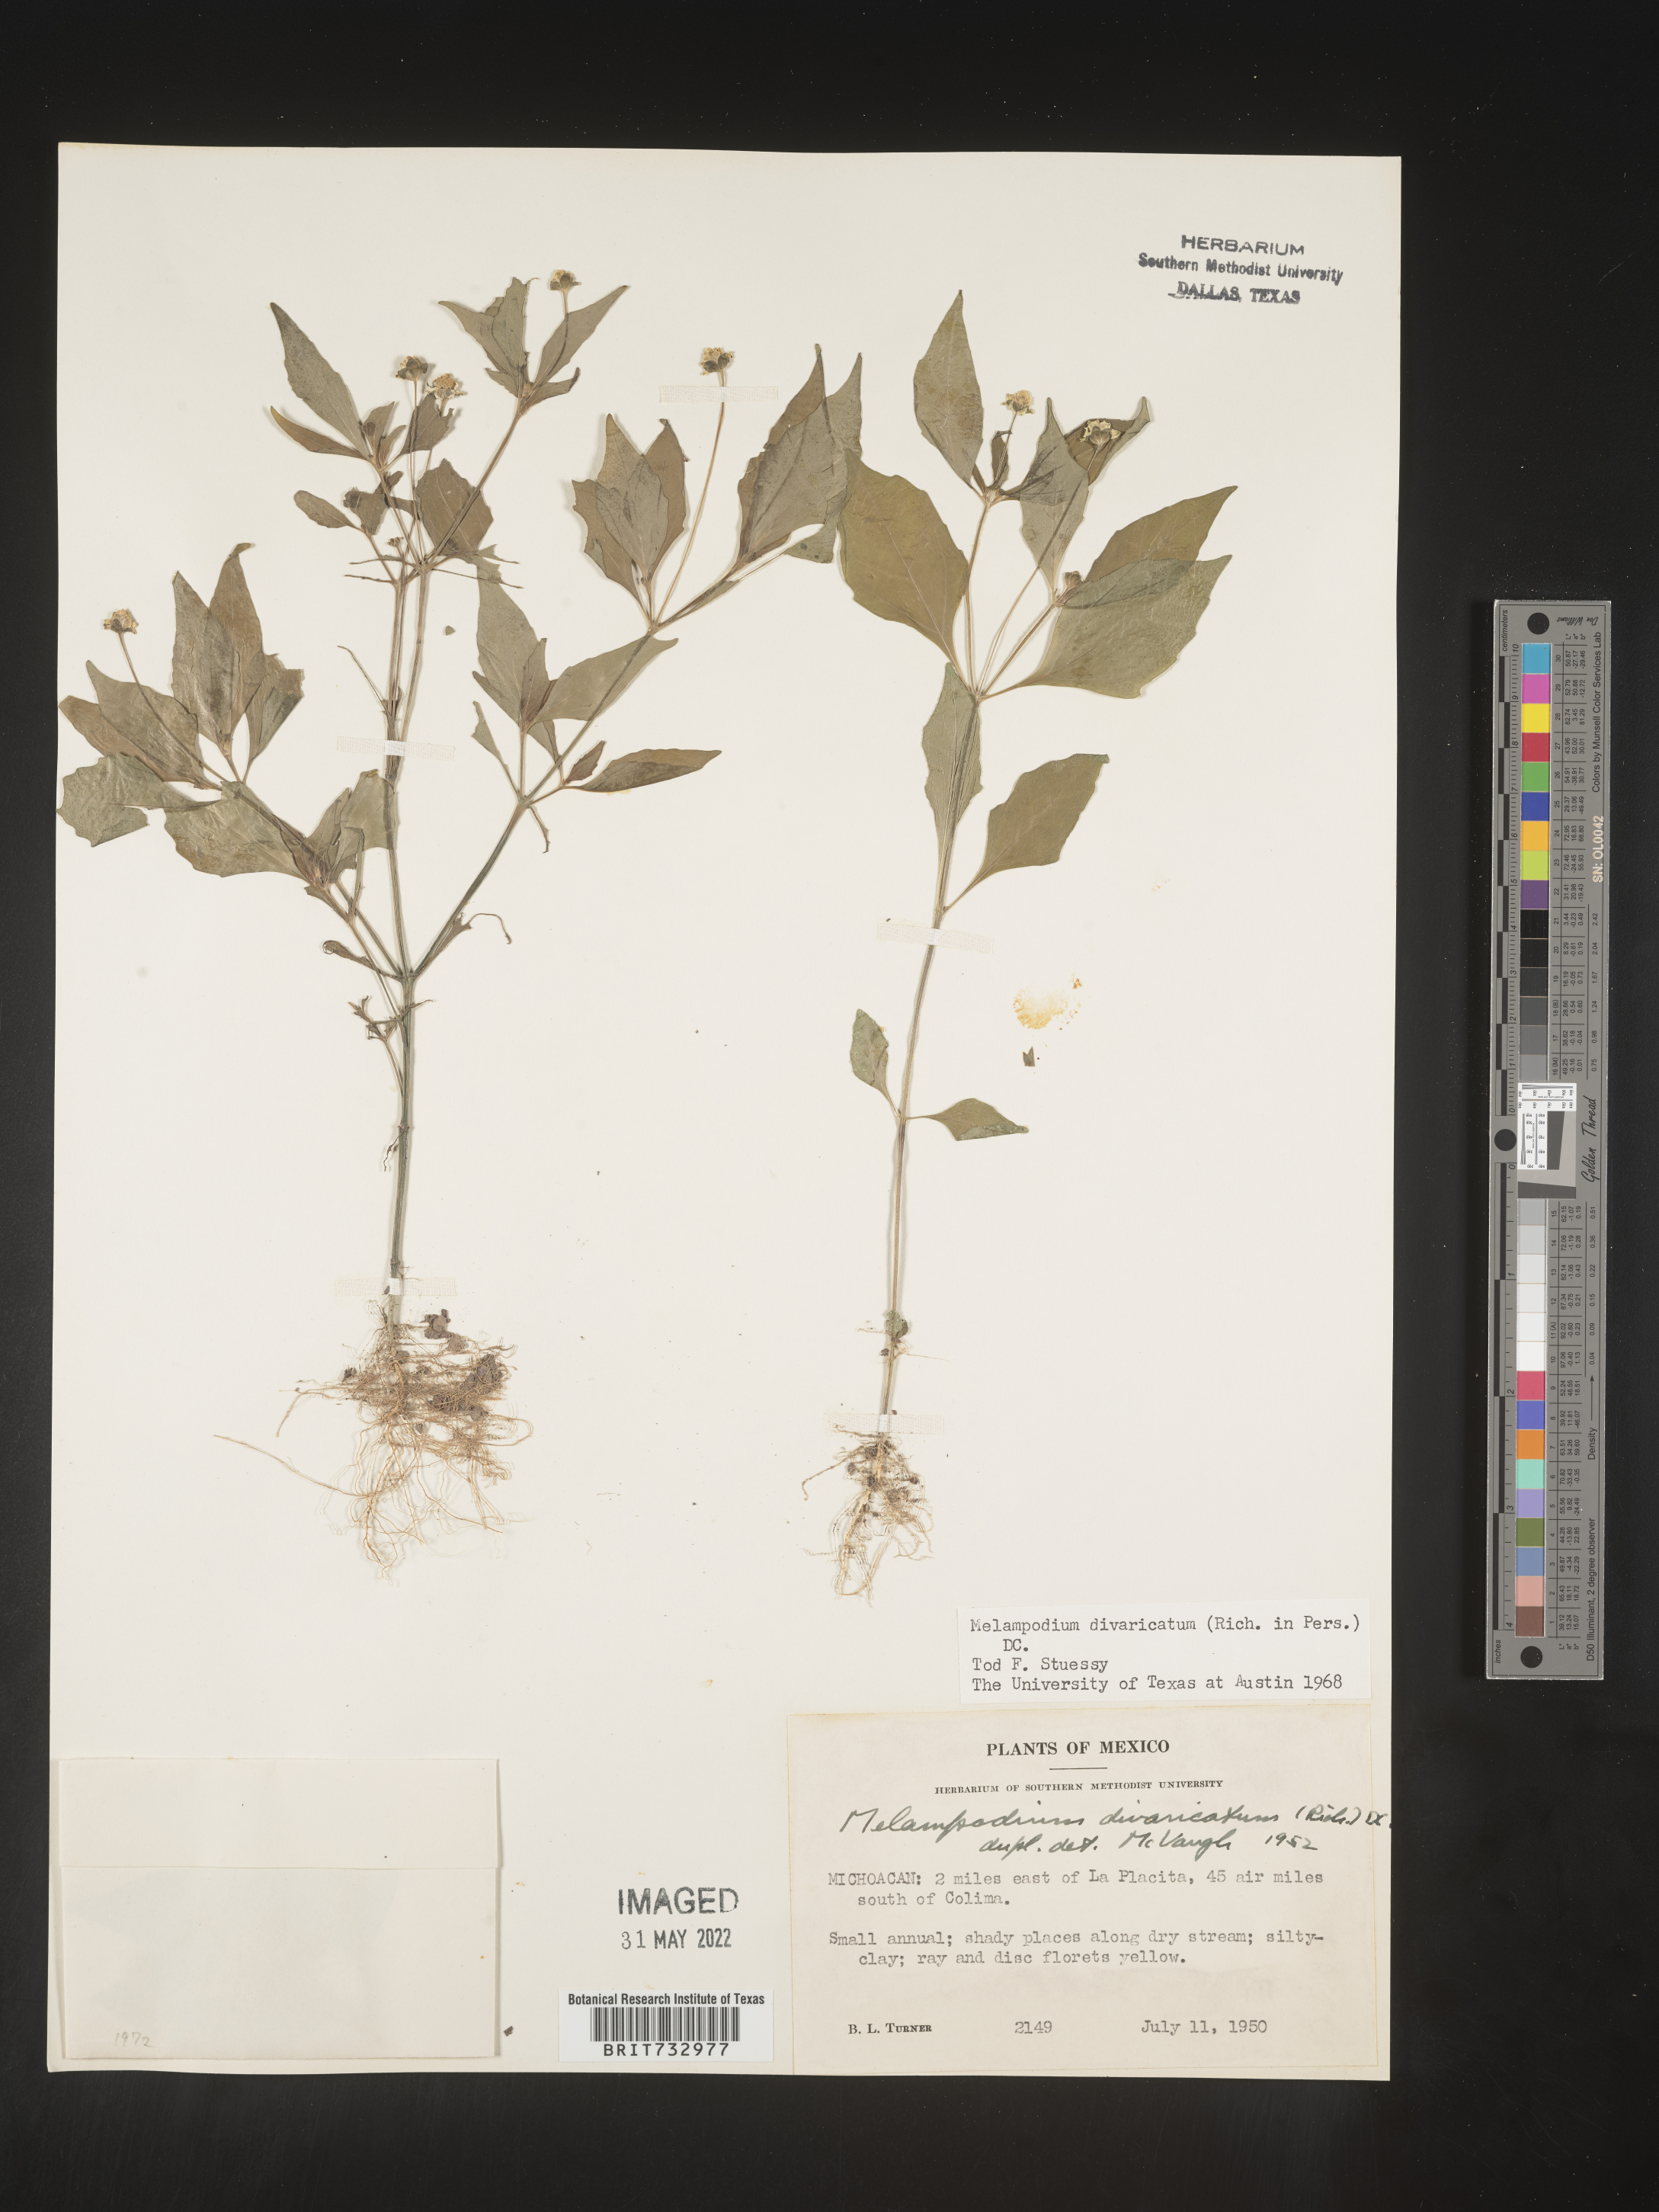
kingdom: Plantae
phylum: Tracheophyta
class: Magnoliopsida
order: Asterales
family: Asteraceae
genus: Melampodium
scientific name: Melampodium
